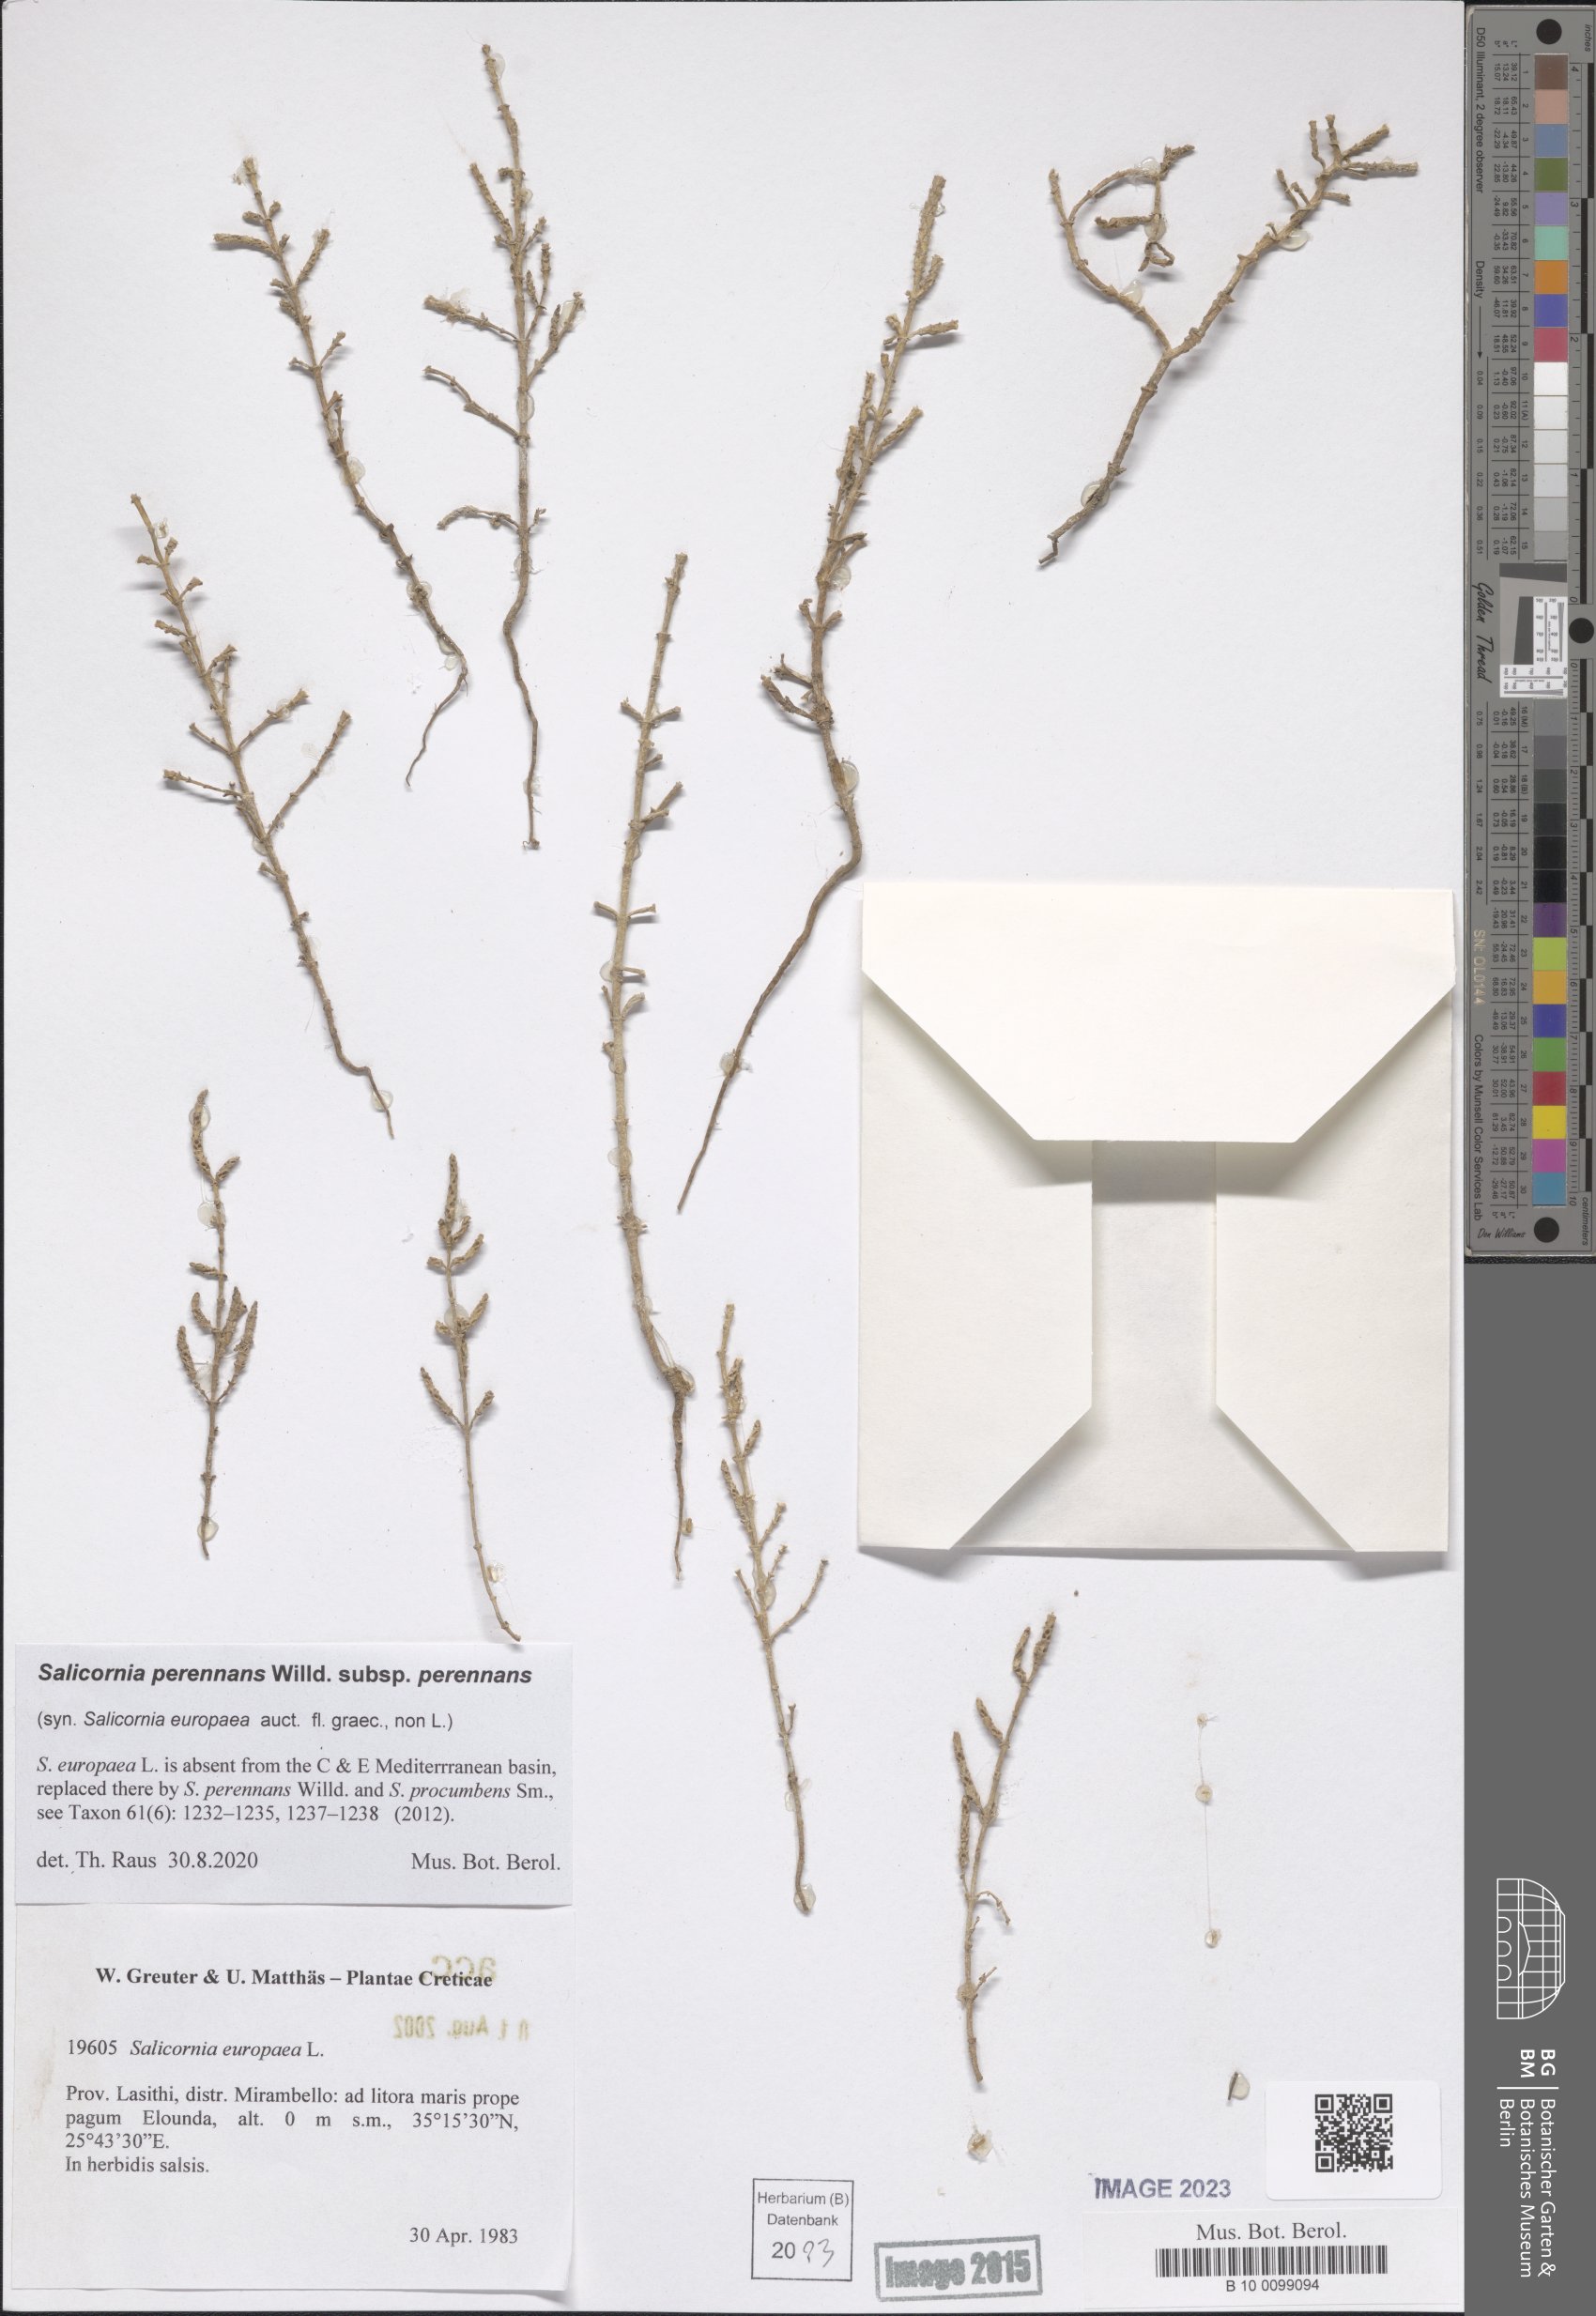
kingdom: Plantae
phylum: Tracheophyta
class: Magnoliopsida
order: Caryophyllales
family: Amaranthaceae
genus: Salicornia
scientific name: Salicornia perennans
